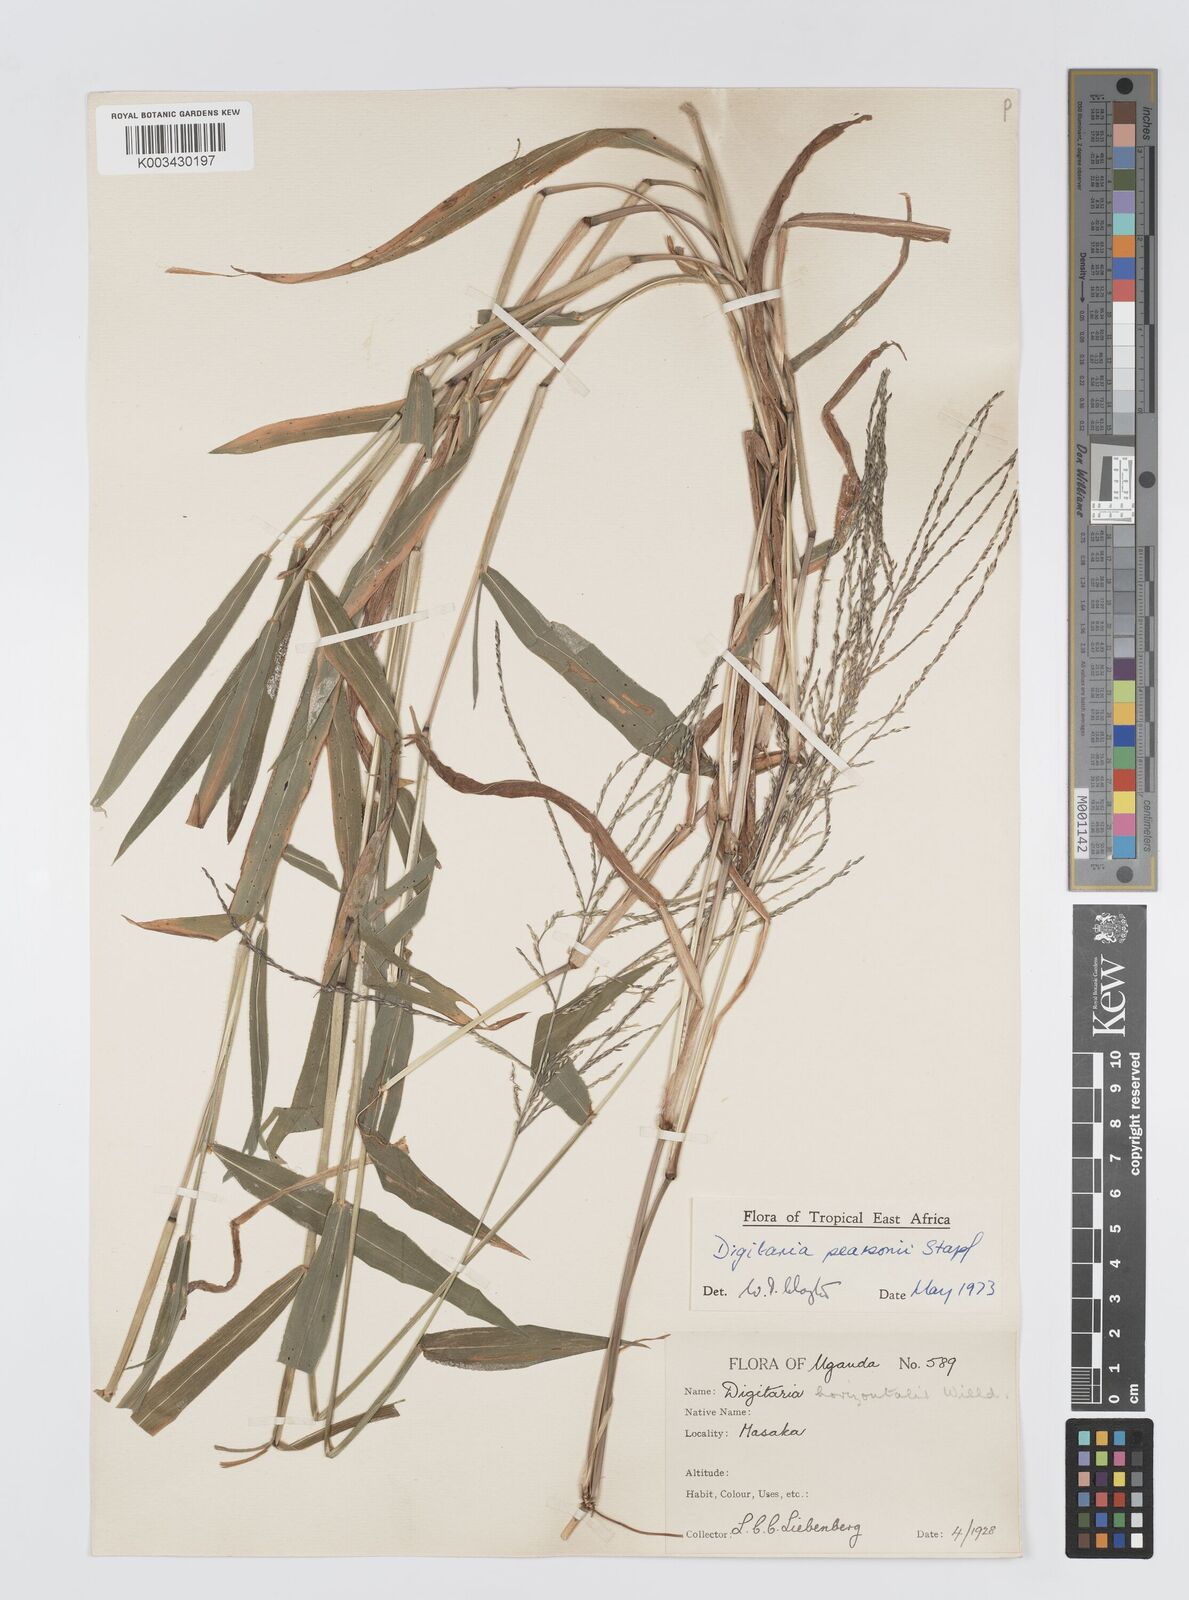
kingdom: Plantae
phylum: Tracheophyta
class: Liliopsida
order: Poales
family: Poaceae
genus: Digitaria
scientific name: Digitaria pearsonii
